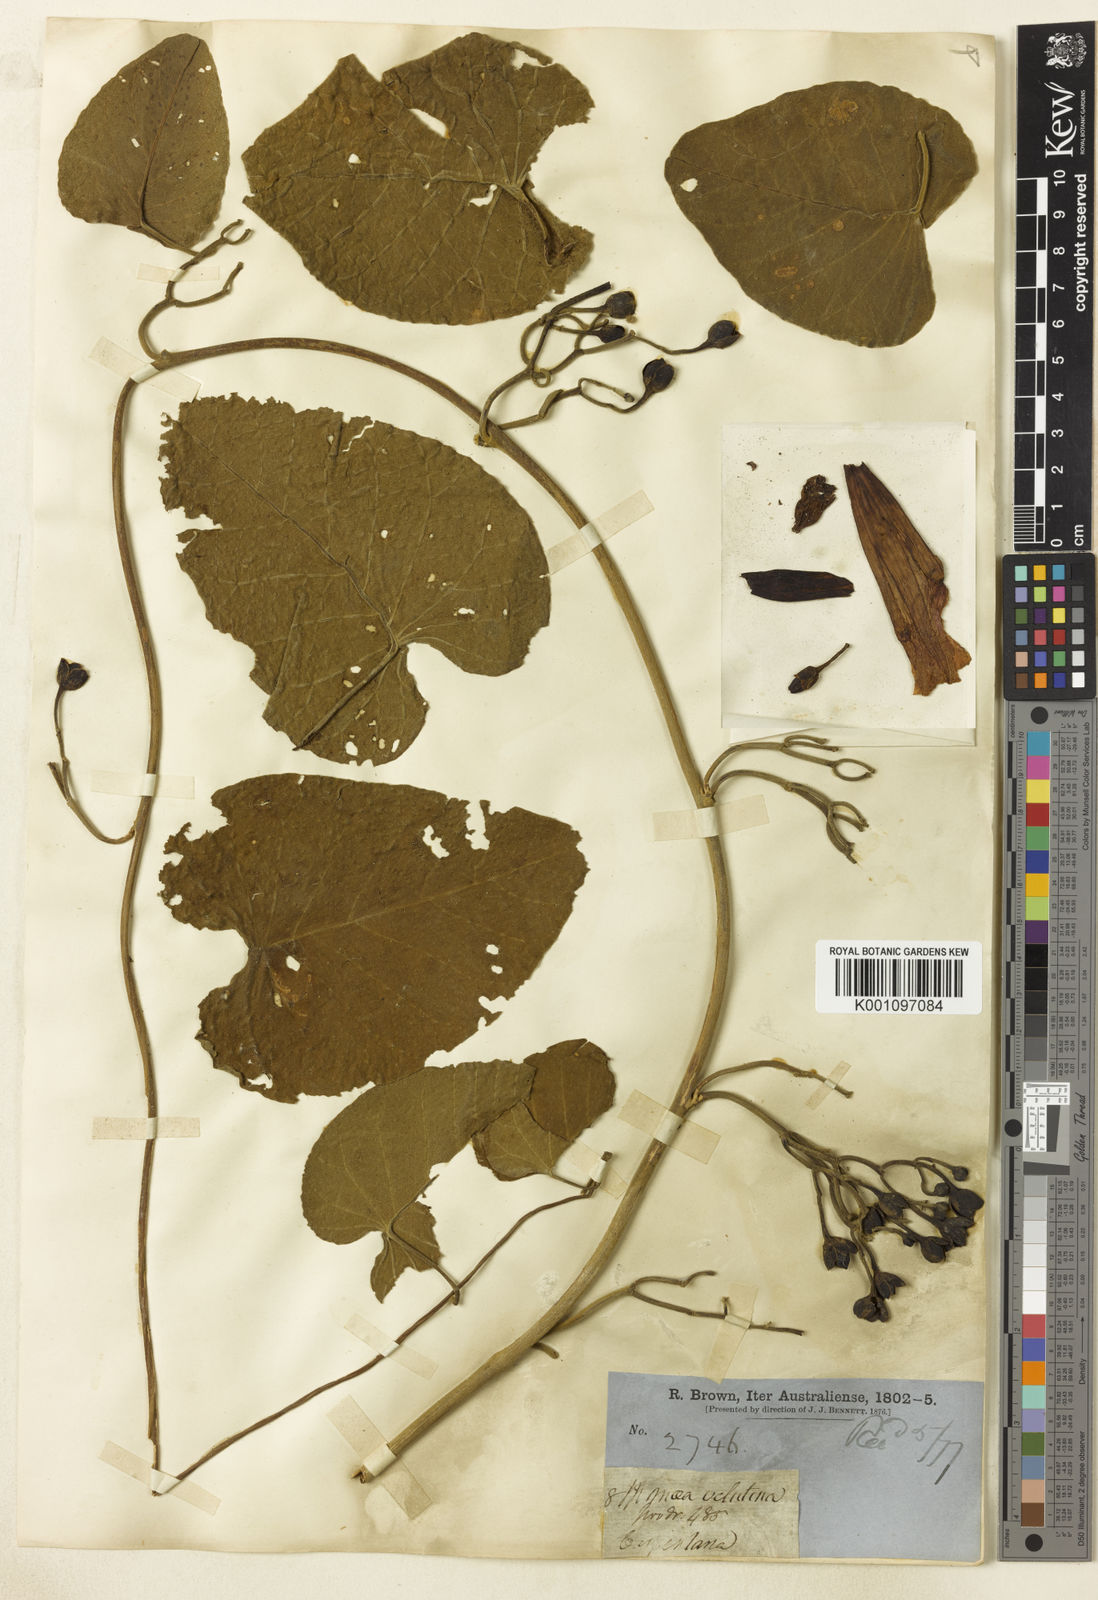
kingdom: Plantae
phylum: Tracheophyta
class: Magnoliopsida
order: Solanales
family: Convolvulaceae
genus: Ipomoea
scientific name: Ipomoea velutina
